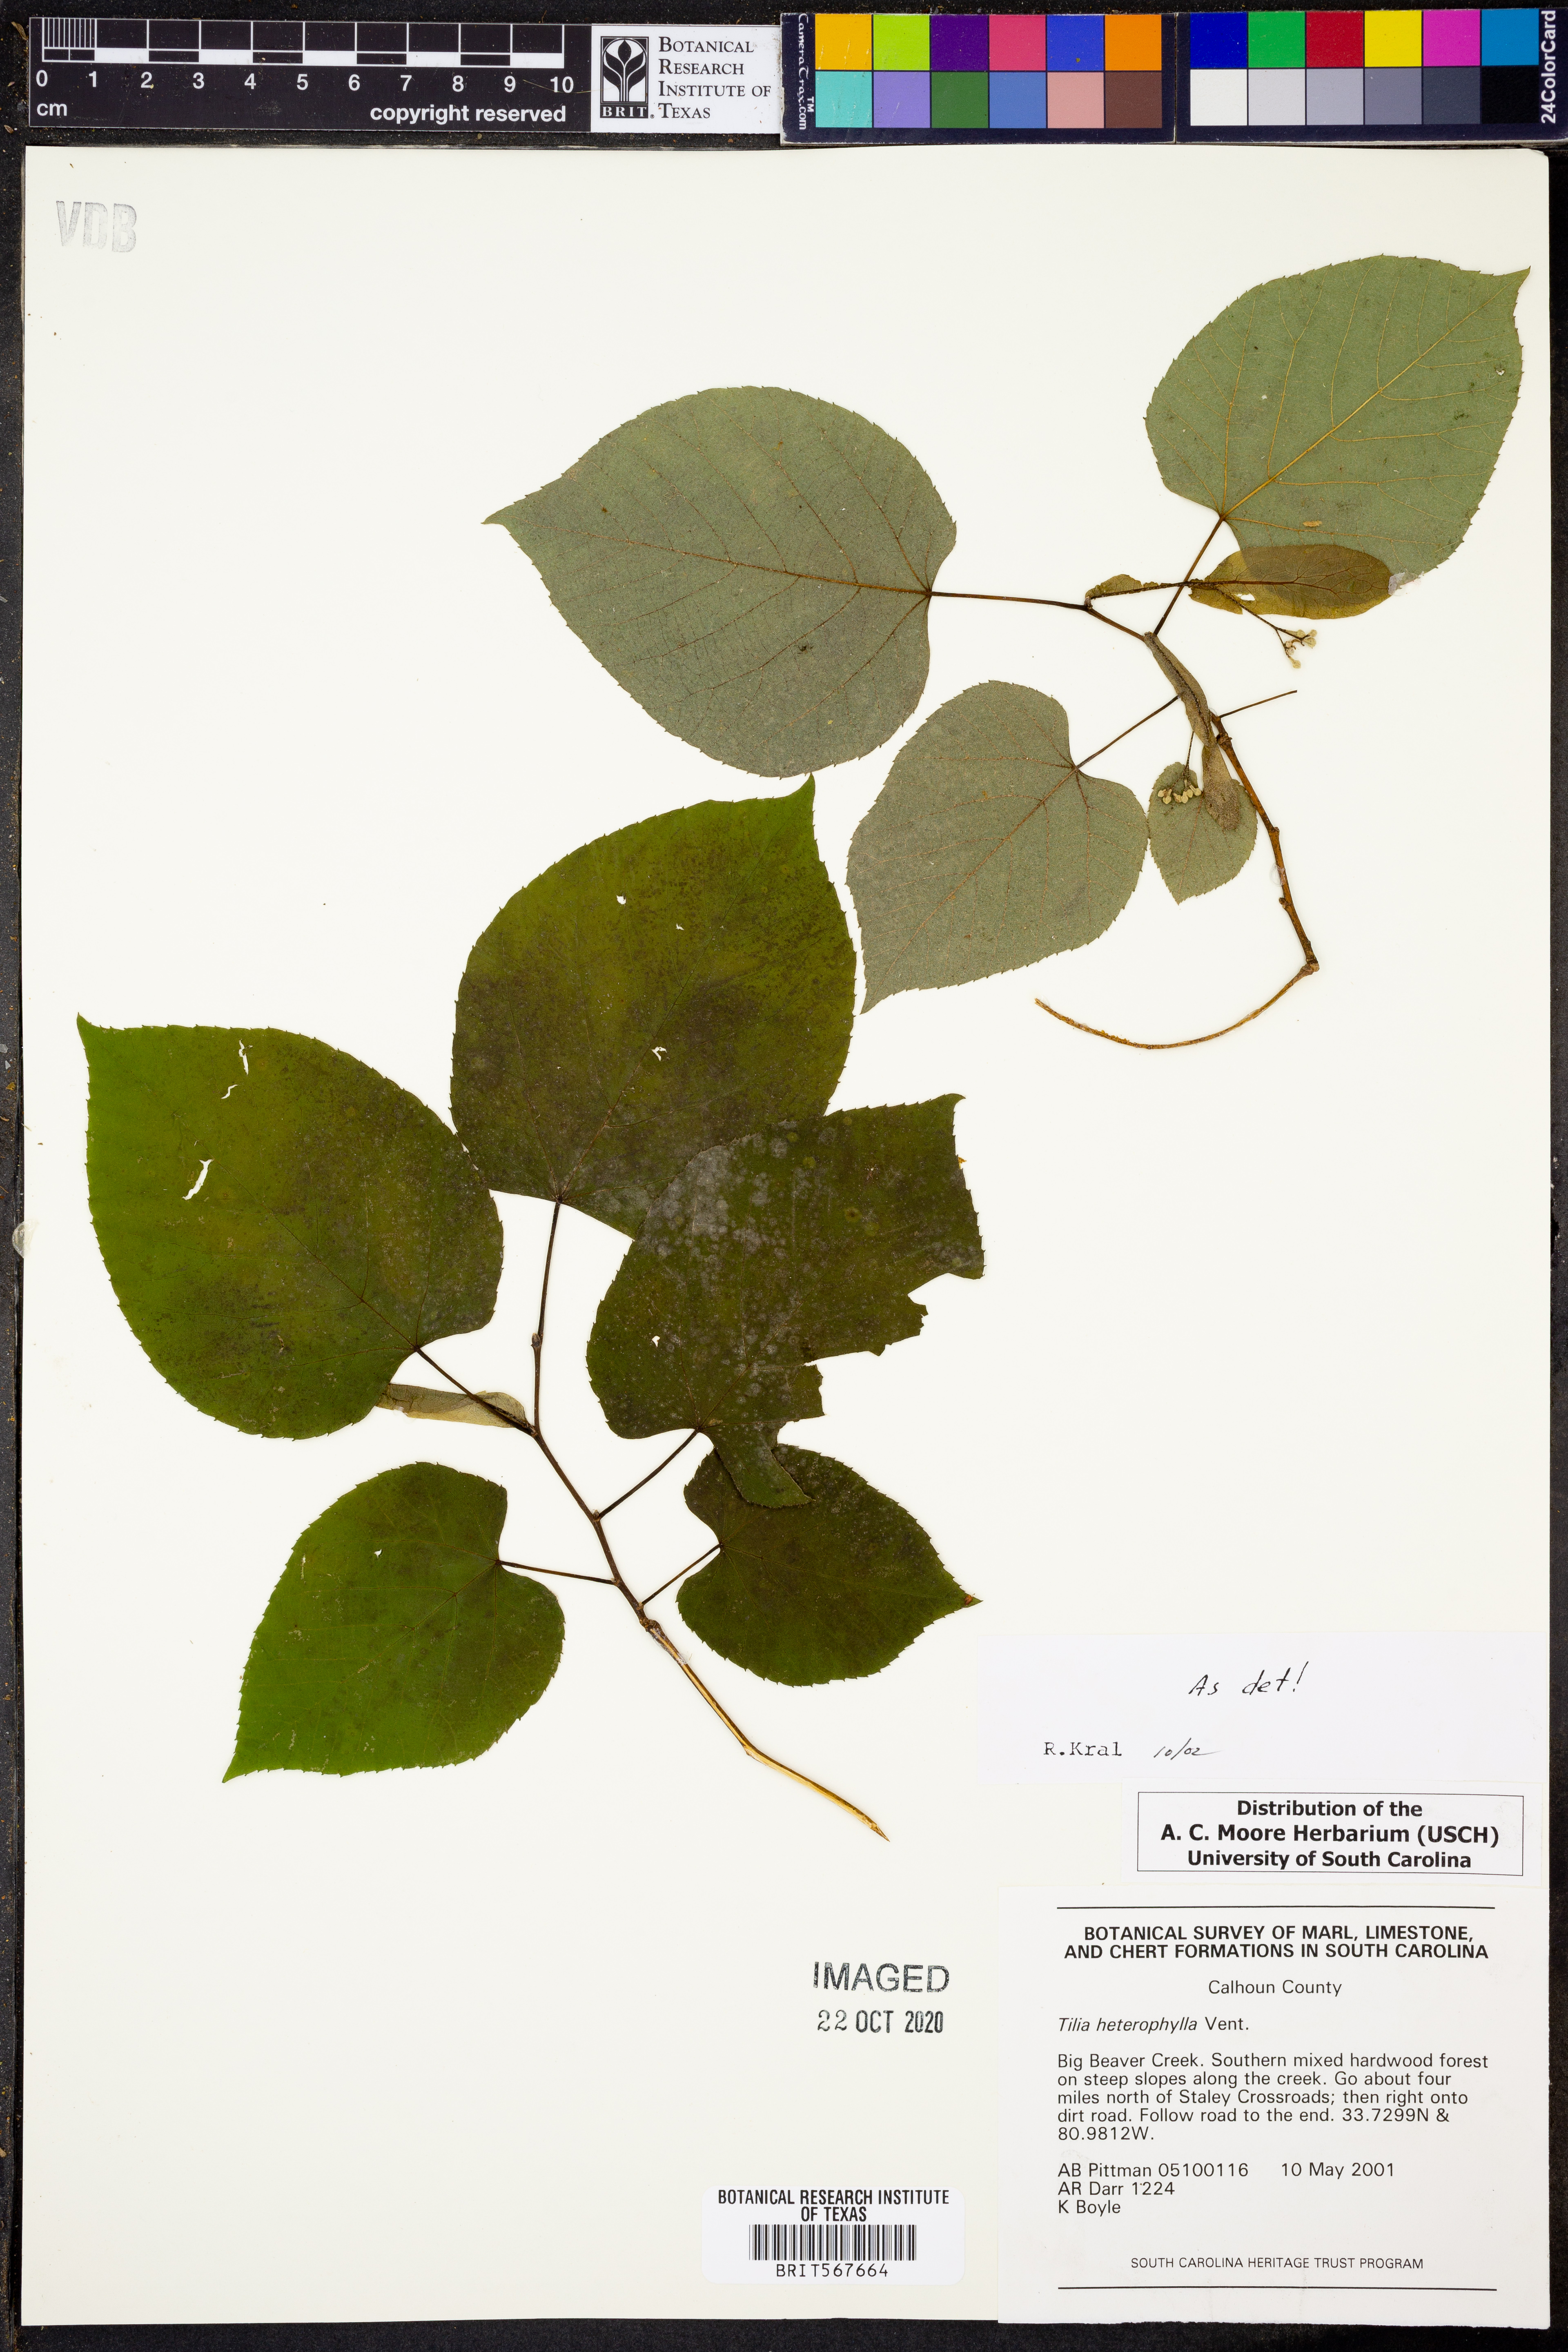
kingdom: Plantae
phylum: Tracheophyta
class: Magnoliopsida
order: Malvales
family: Malvaceae
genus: Tilia
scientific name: Tilia americana
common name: Basswood
